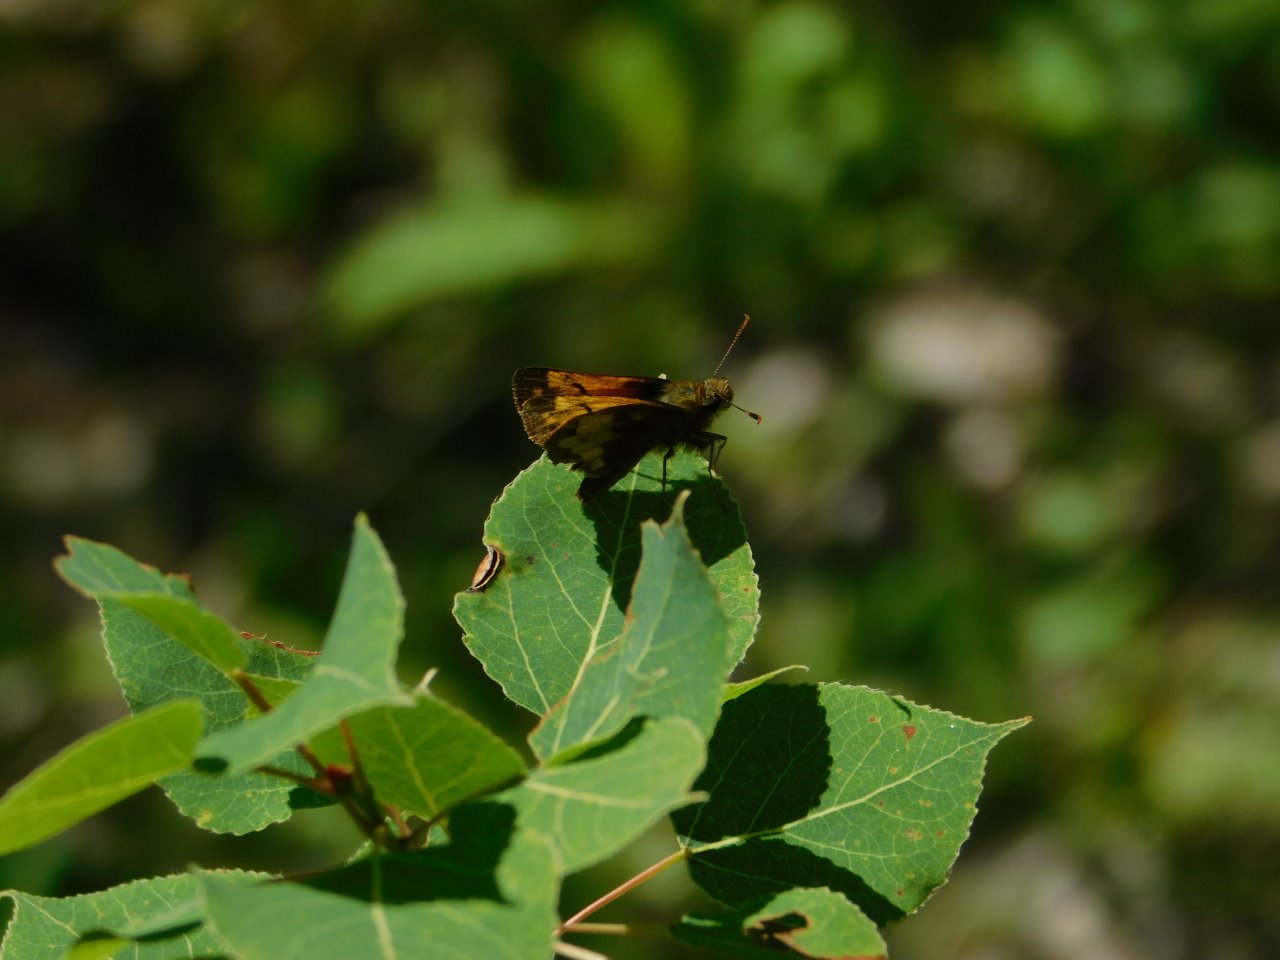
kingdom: Animalia
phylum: Arthropoda
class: Insecta
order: Lepidoptera
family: Hesperiidae
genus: Lon
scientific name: Lon hobomok
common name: Hobomok Skipper
